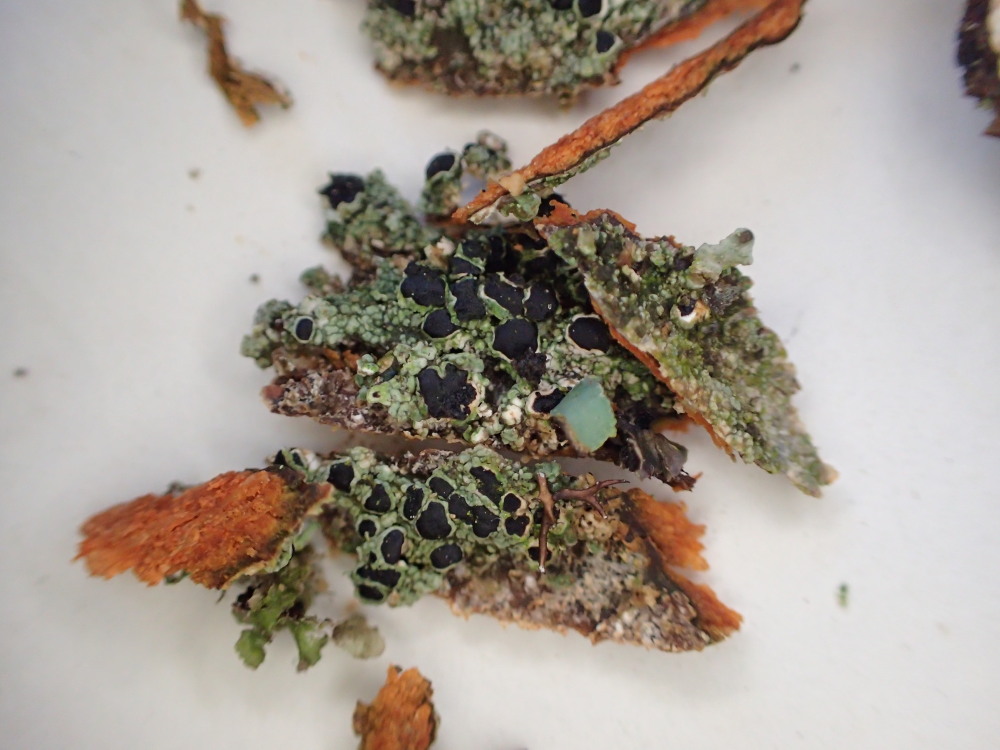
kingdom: Fungi
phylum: Ascomycota
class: Lecanoromycetes
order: Lecanorales
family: Tephromelataceae
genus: Tephromela
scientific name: Tephromela atra
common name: sortfrugtet kantskivelav
